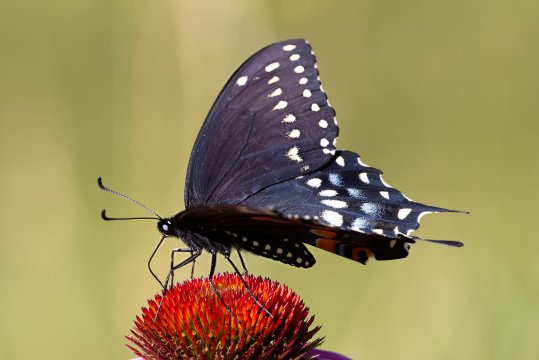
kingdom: Animalia
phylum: Arthropoda
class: Insecta
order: Lepidoptera
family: Papilionidae
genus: Papilio
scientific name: Papilio polyxenes
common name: Black Swallowtail
